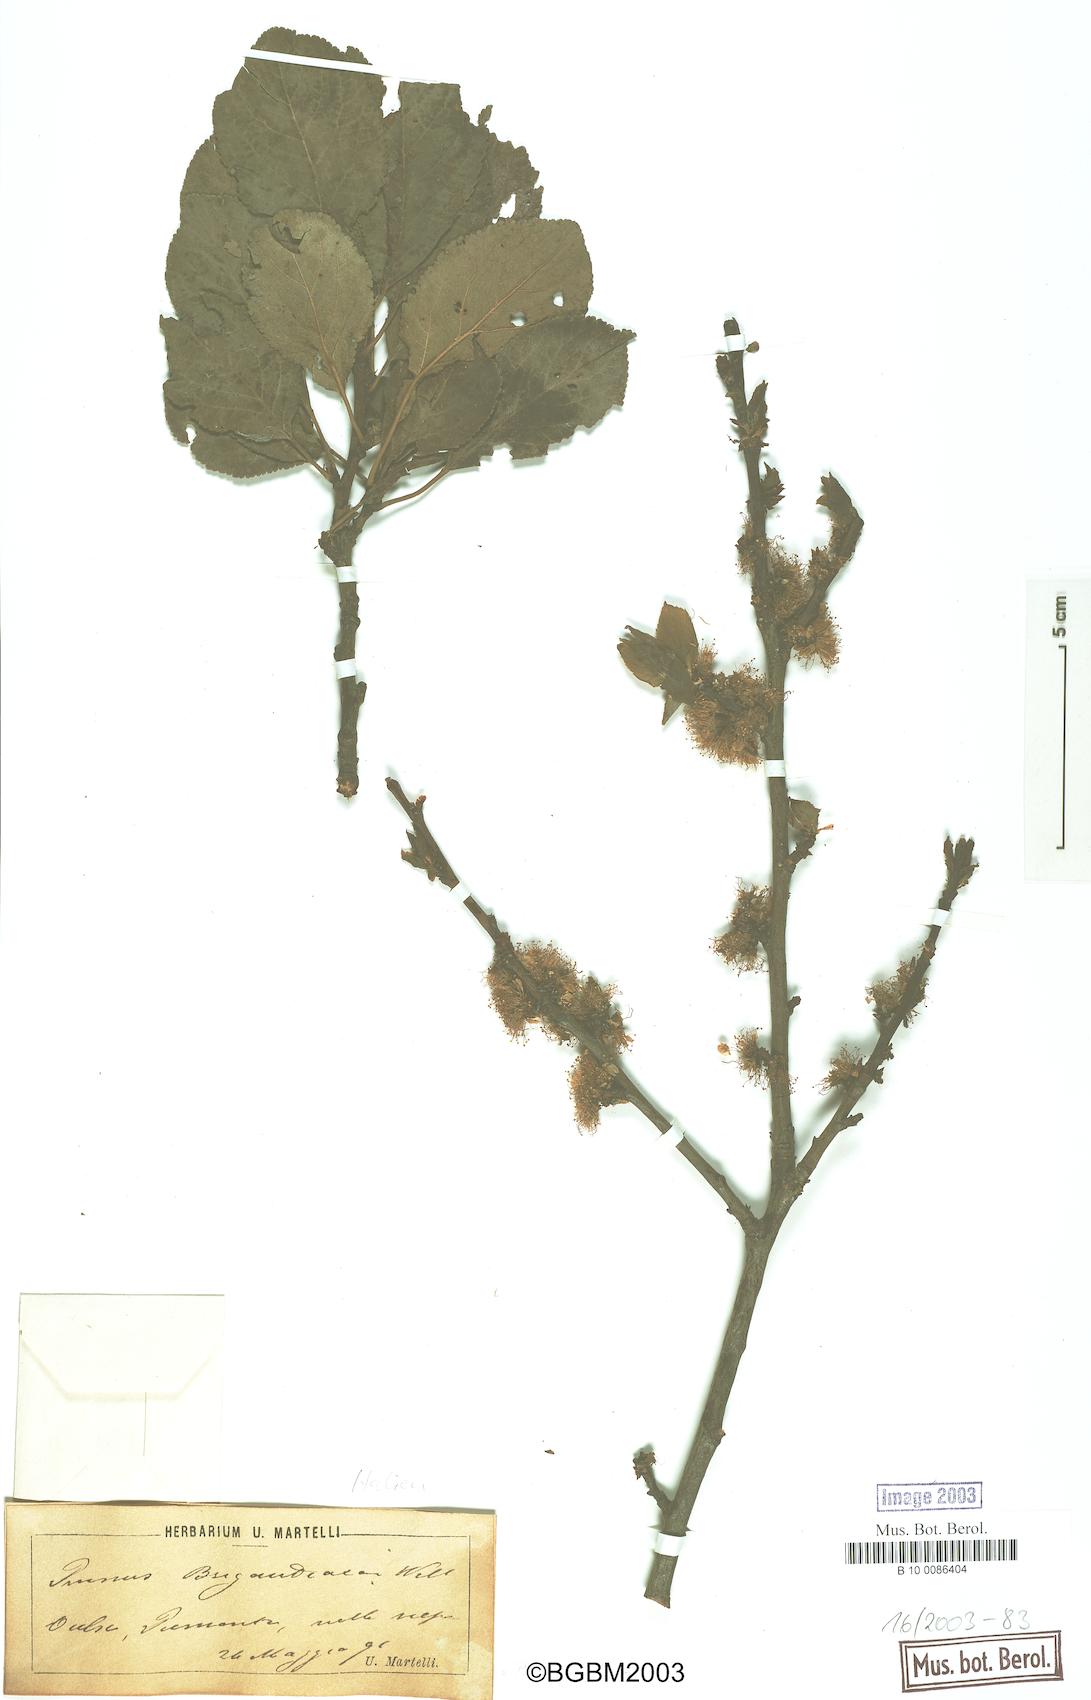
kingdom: Plantae
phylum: Tracheophyta
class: Magnoliopsida
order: Rosales
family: Rosaceae
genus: Prunus
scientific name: Prunus domestica
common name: Wild plum
